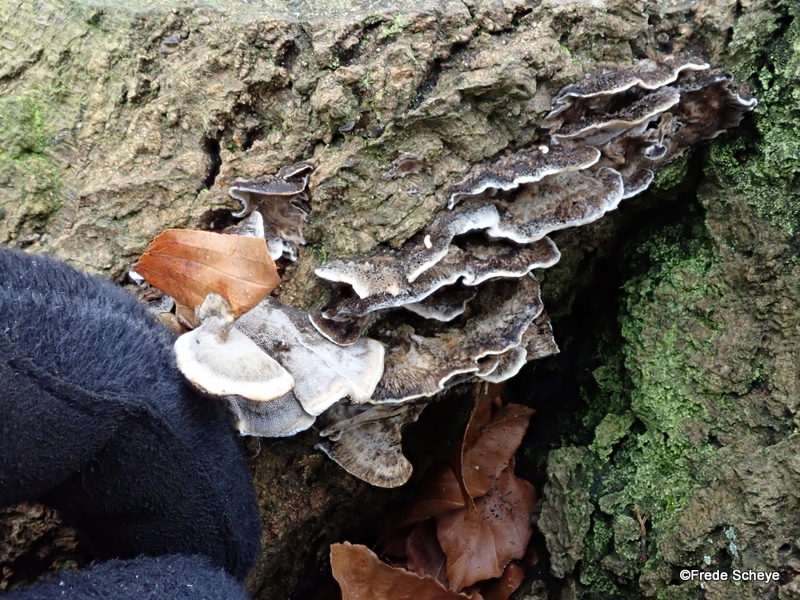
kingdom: Fungi
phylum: Basidiomycota
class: Agaricomycetes
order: Polyporales
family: Phanerochaetaceae
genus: Bjerkandera
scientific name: Bjerkandera adusta
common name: sveden sodporesvamp
